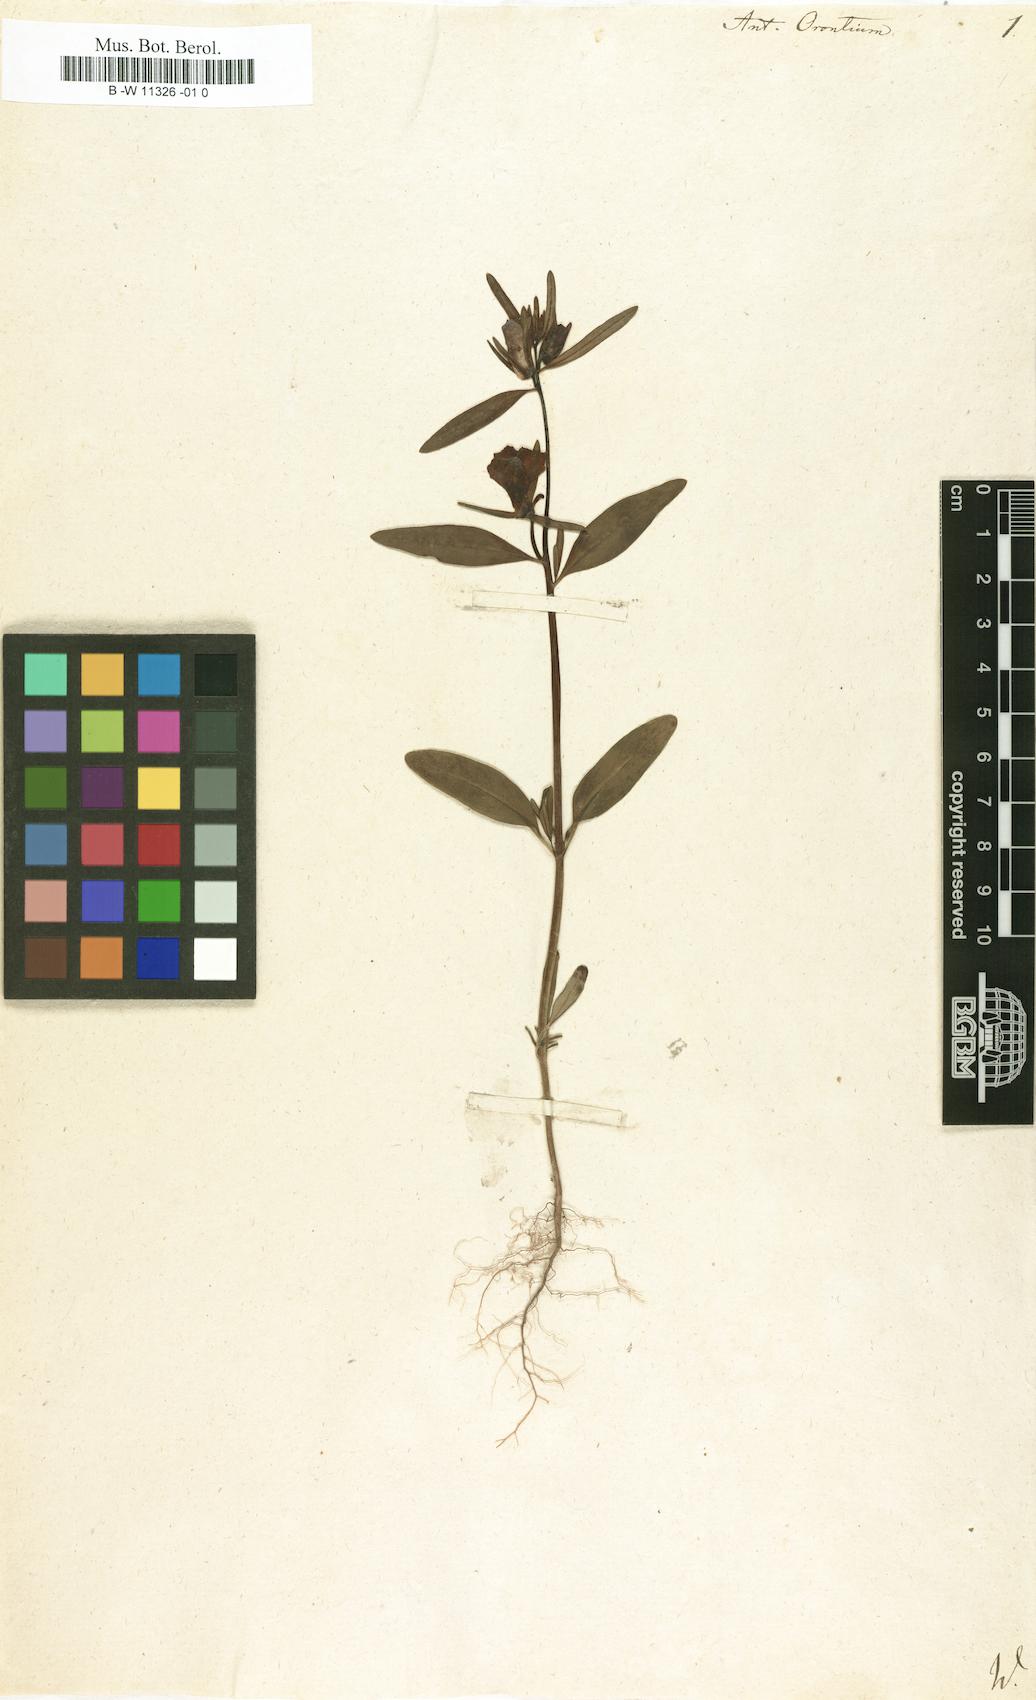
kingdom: Plantae
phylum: Tracheophyta
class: Magnoliopsida
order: Lamiales
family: Plantaginaceae
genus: Misopates
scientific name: Misopates orontium
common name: Weasel's-snout
